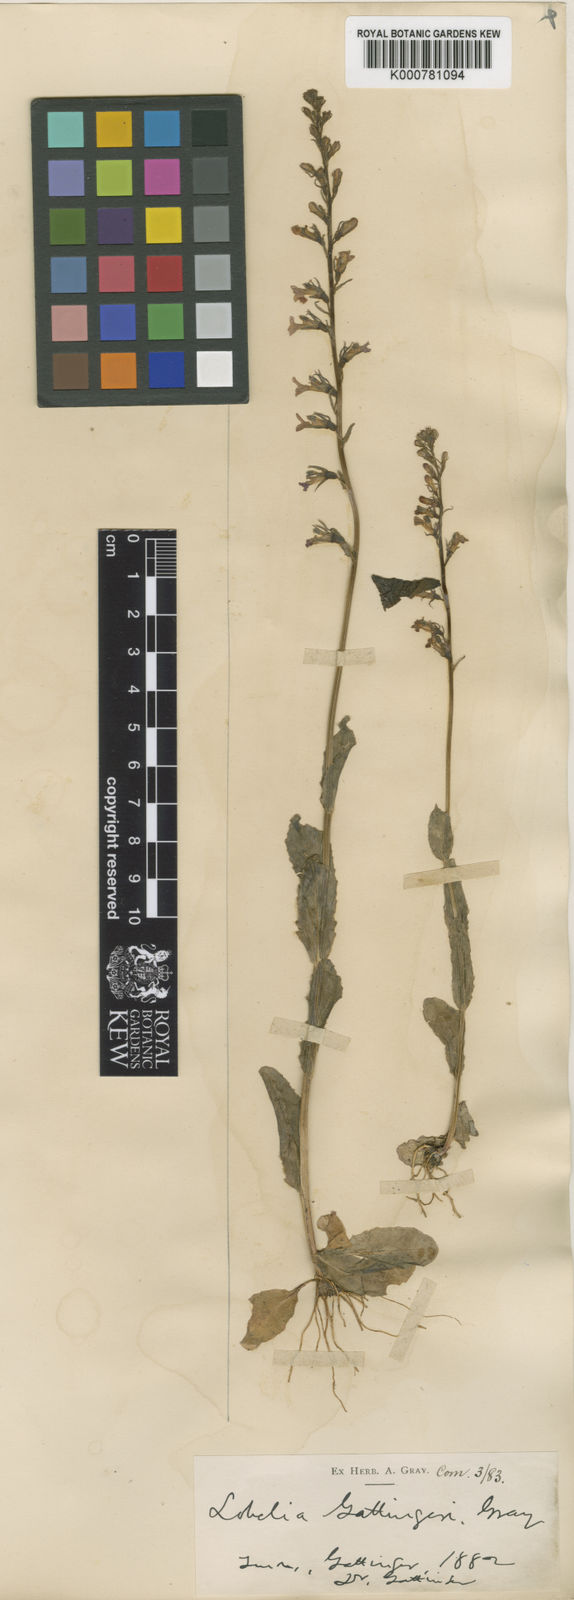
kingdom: Plantae
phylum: Tracheophyta
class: Magnoliopsida
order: Asterales
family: Campanulaceae
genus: Lobelia
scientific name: Lobelia gattingeri
